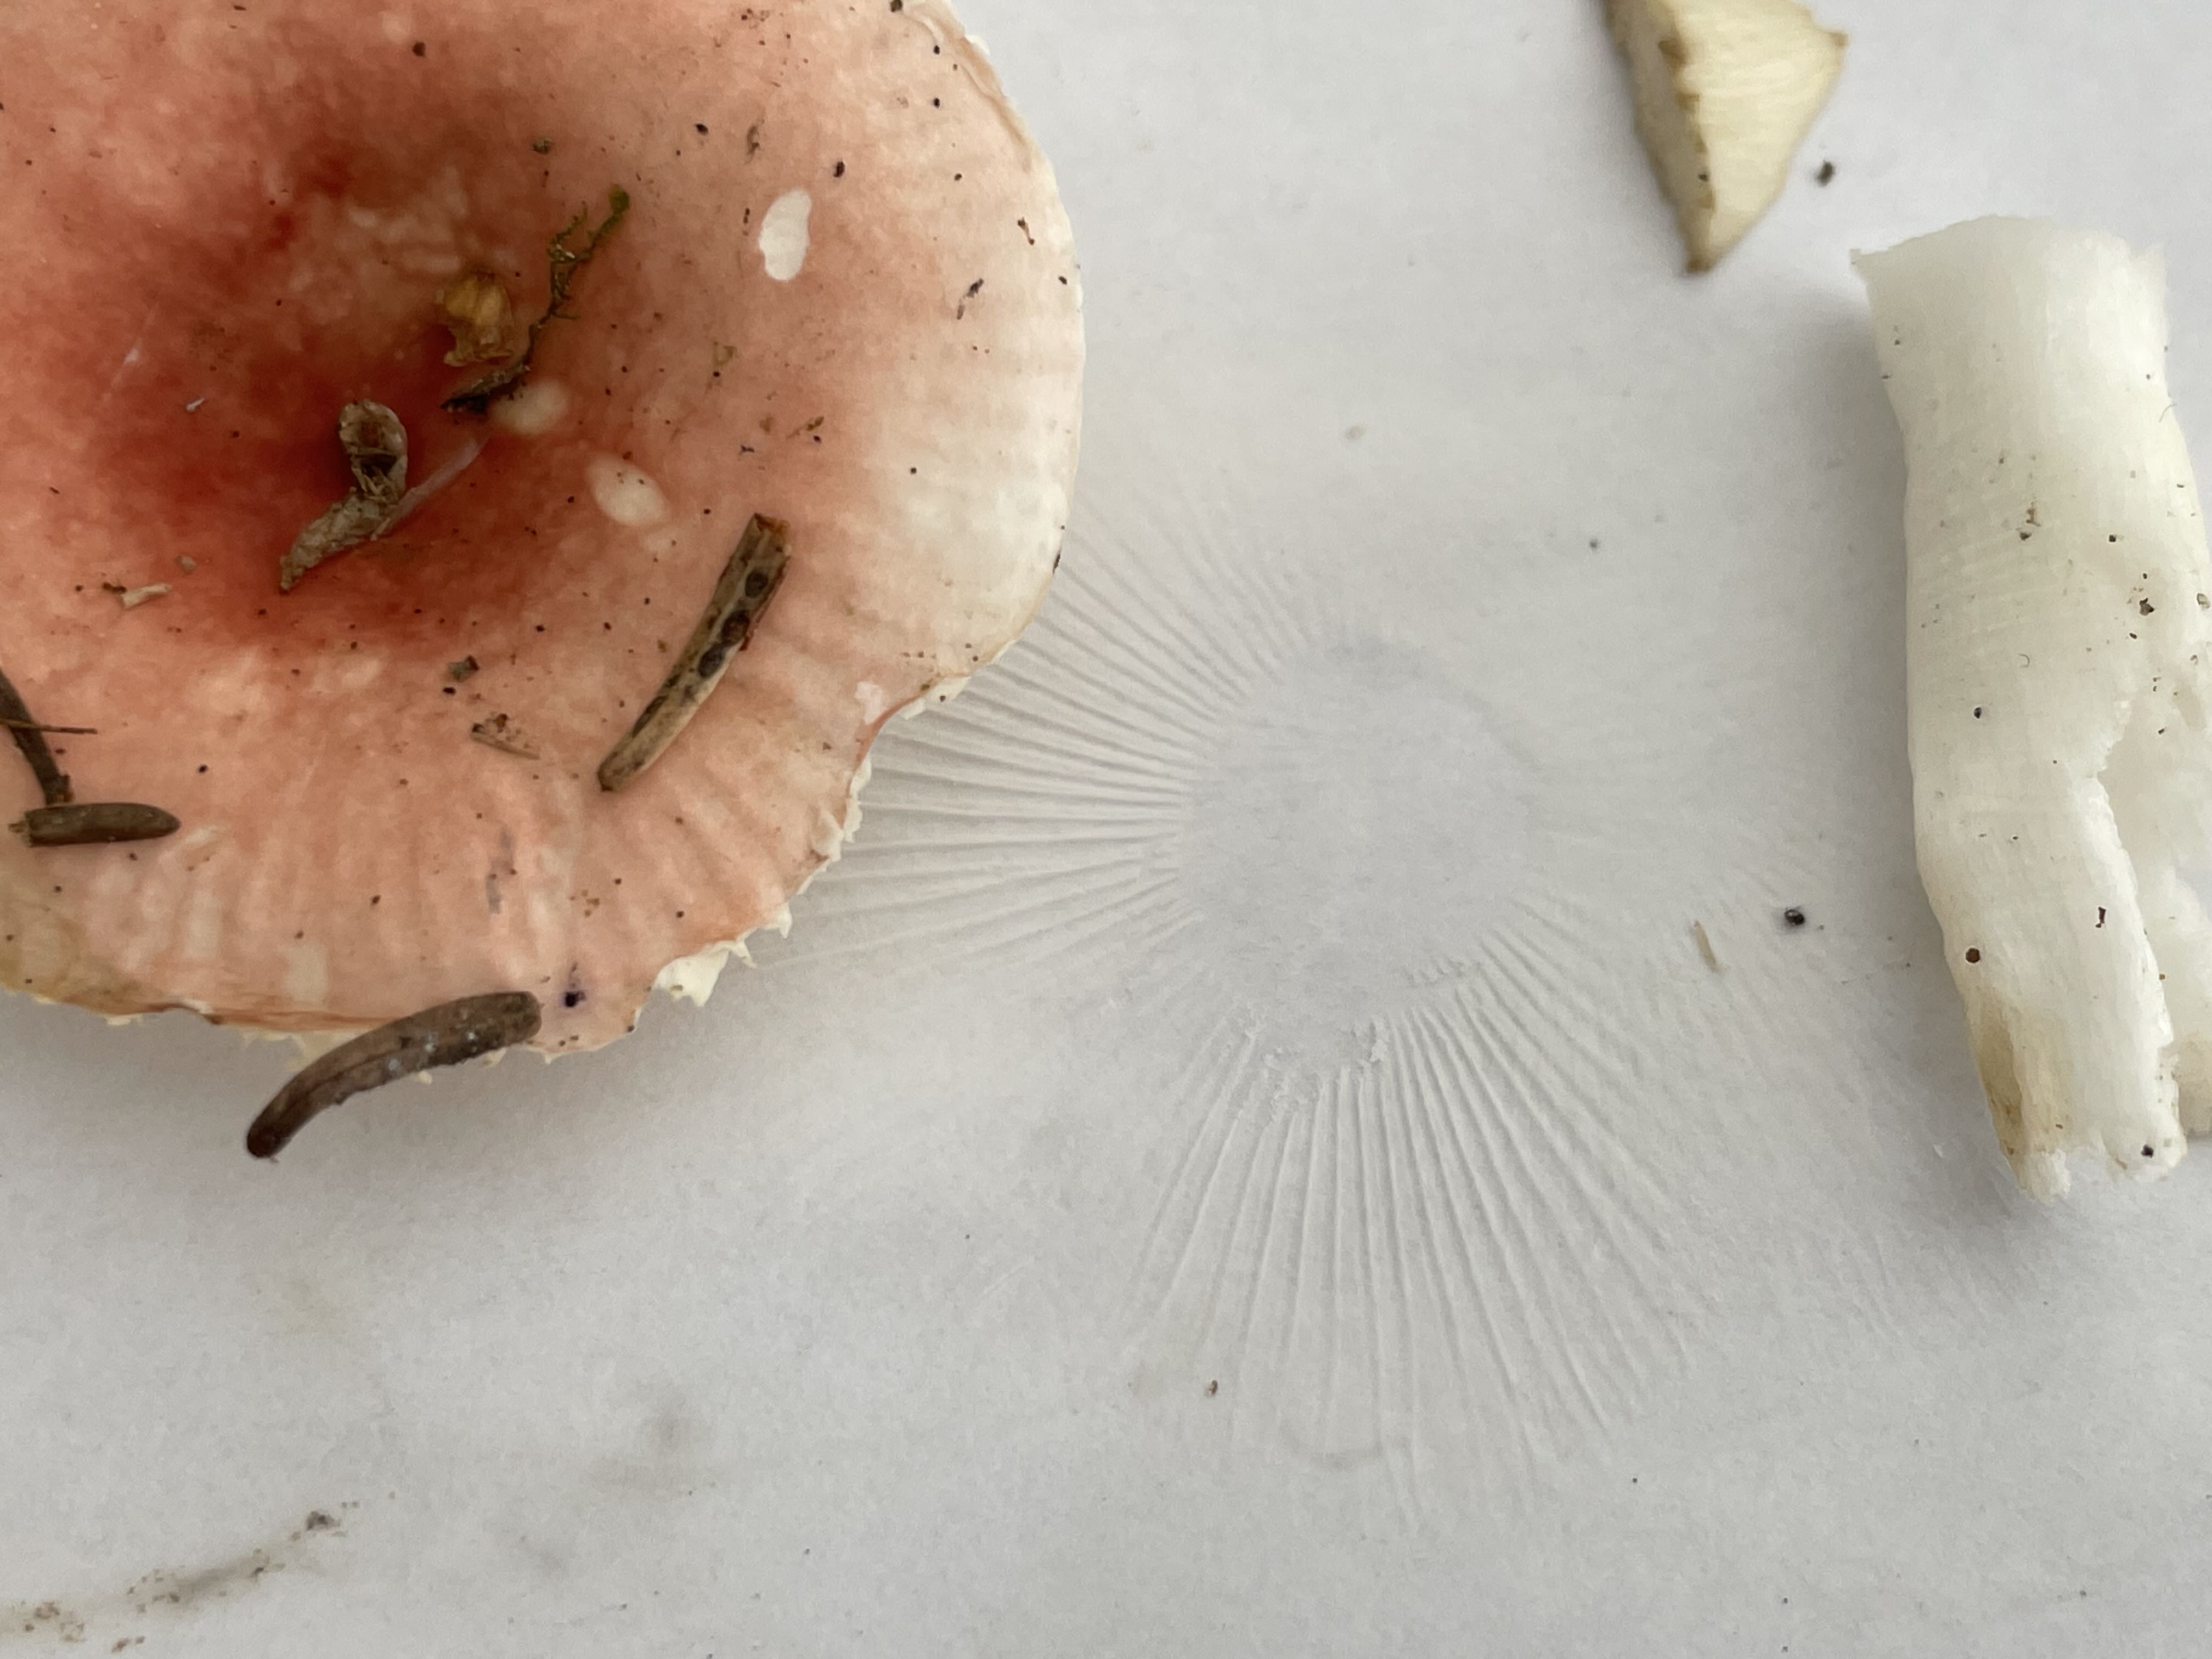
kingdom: Fungi
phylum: Basidiomycota
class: Agaricomycetes
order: Russulales
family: Russulaceae
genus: Russula
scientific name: Russula betularum
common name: bleg gift-skørhat
